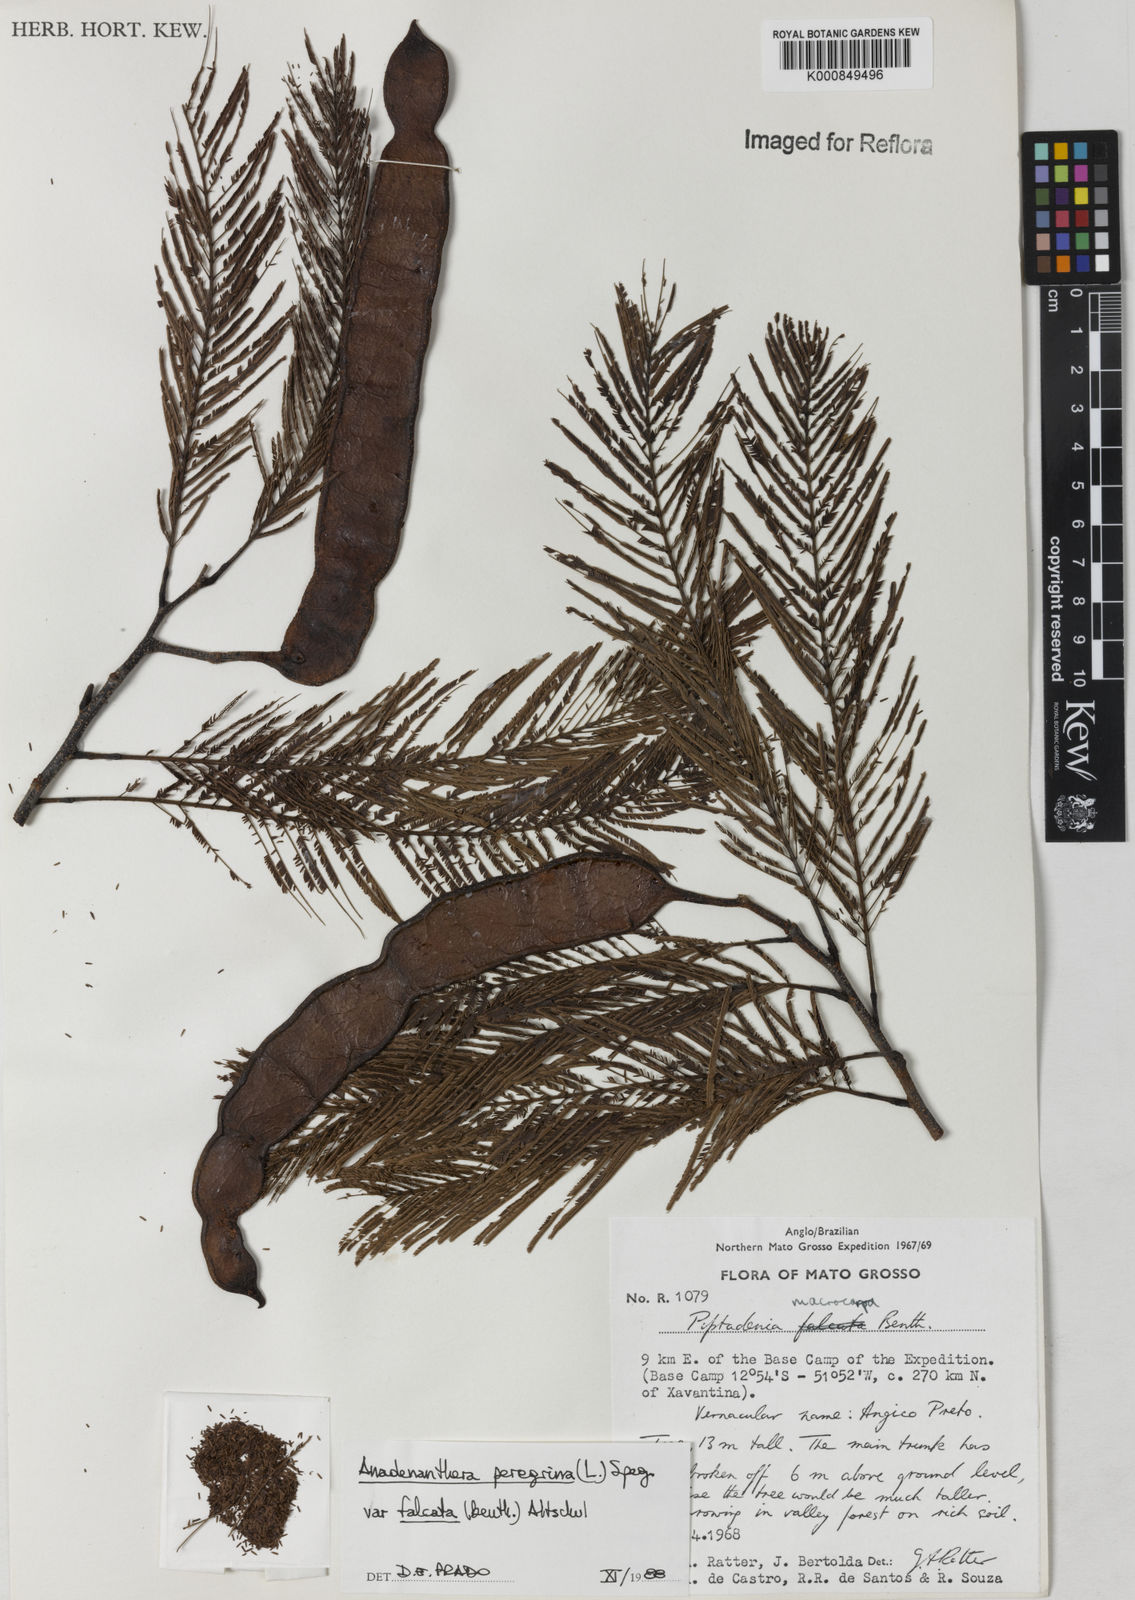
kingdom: Plantae
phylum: Tracheophyta
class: Magnoliopsida
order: Fabales
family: Fabaceae
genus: Anadenanthera
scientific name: Anadenanthera peregrina
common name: Cohoba
